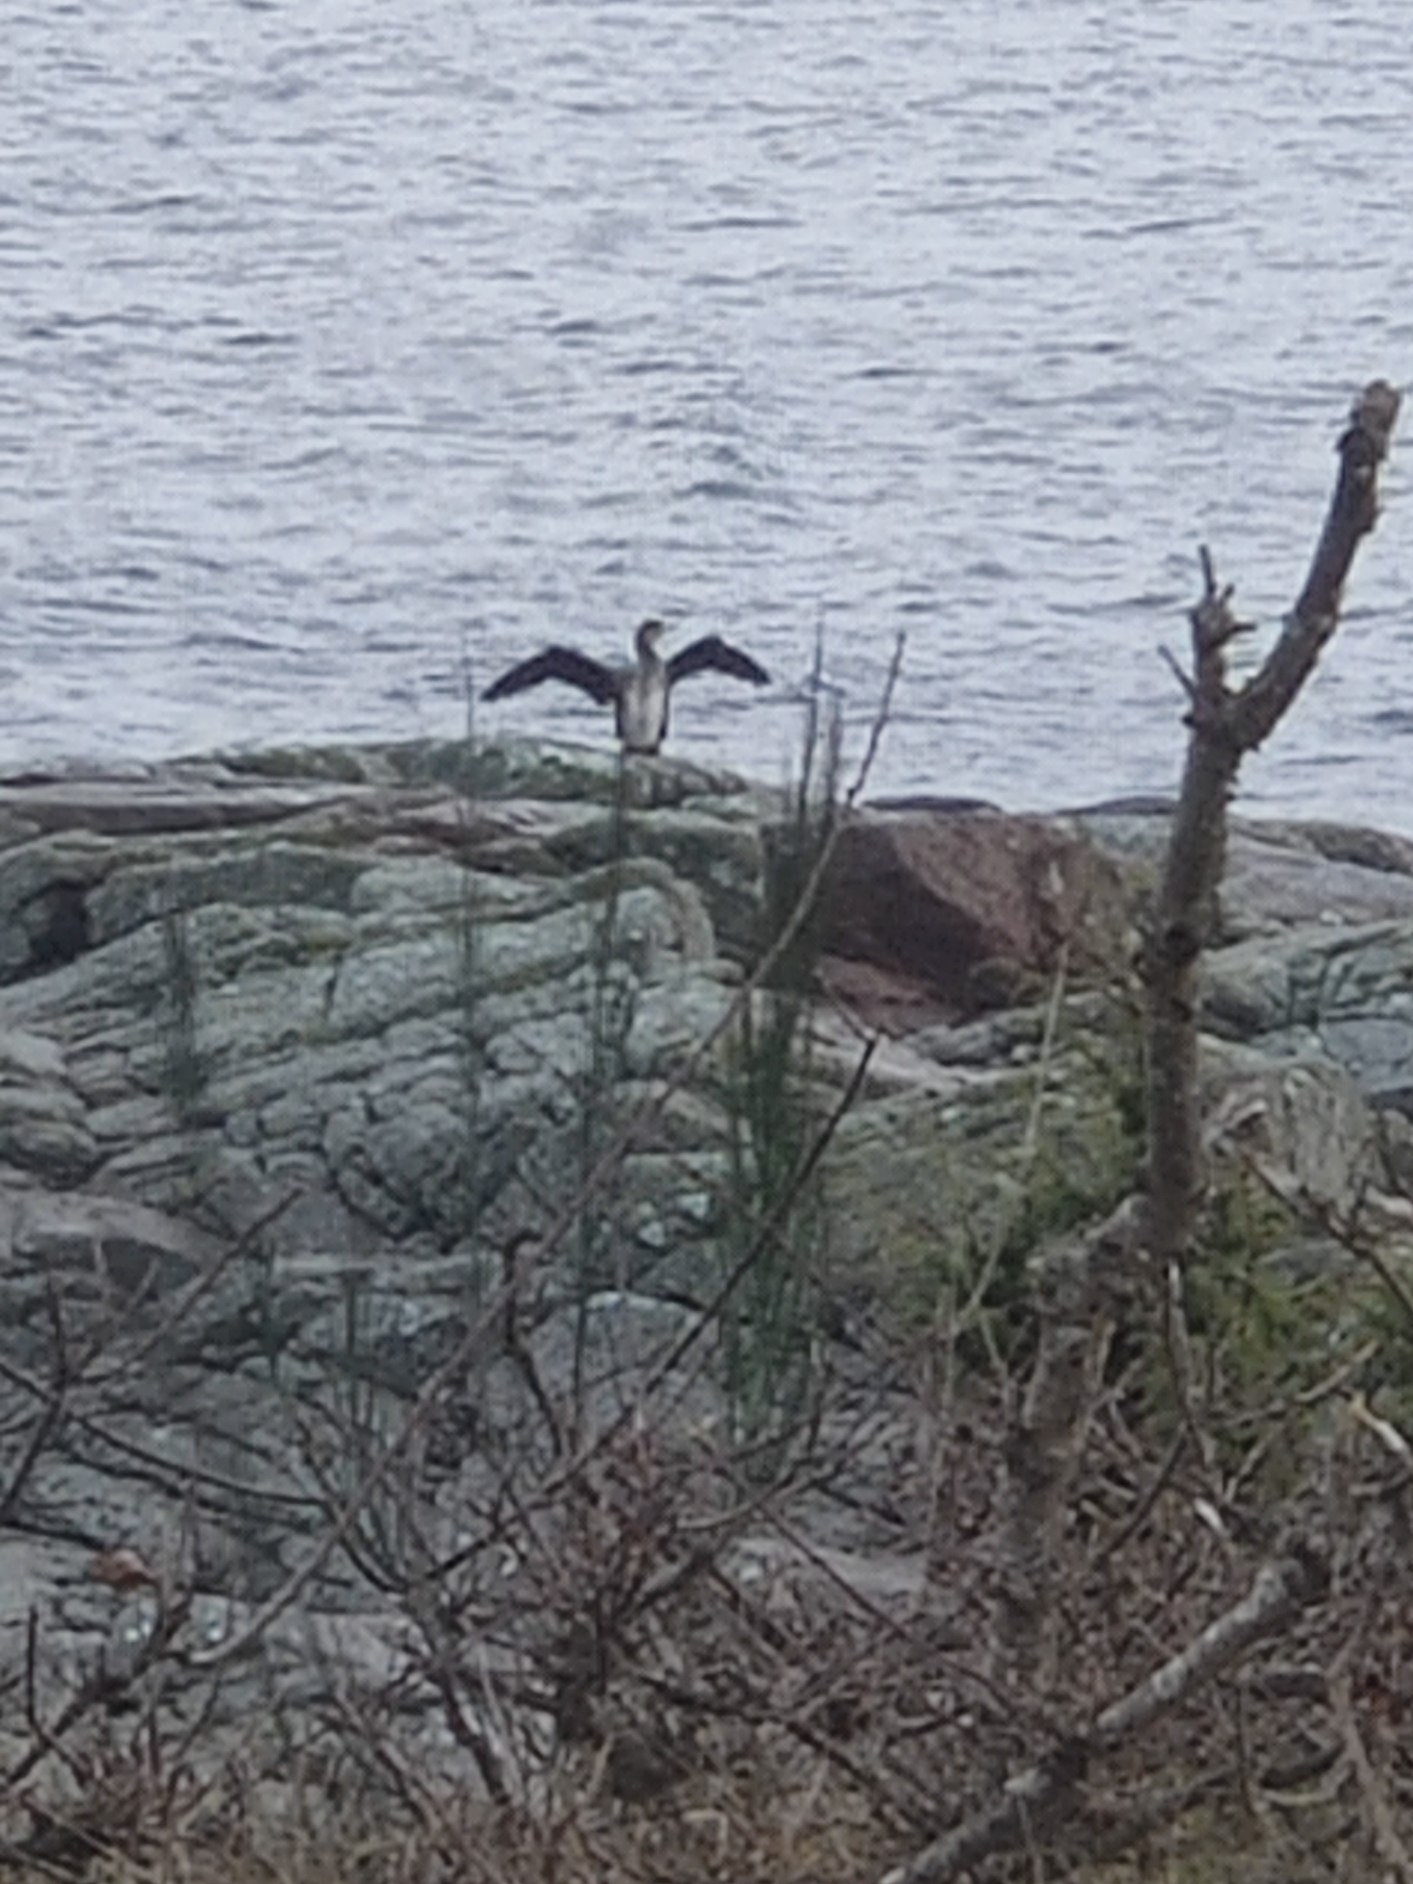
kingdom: Animalia
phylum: Chordata
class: Aves
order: Suliformes
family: Phalacrocoracidae
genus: Phalacrocorax
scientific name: Phalacrocorax carbo
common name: Skarv
